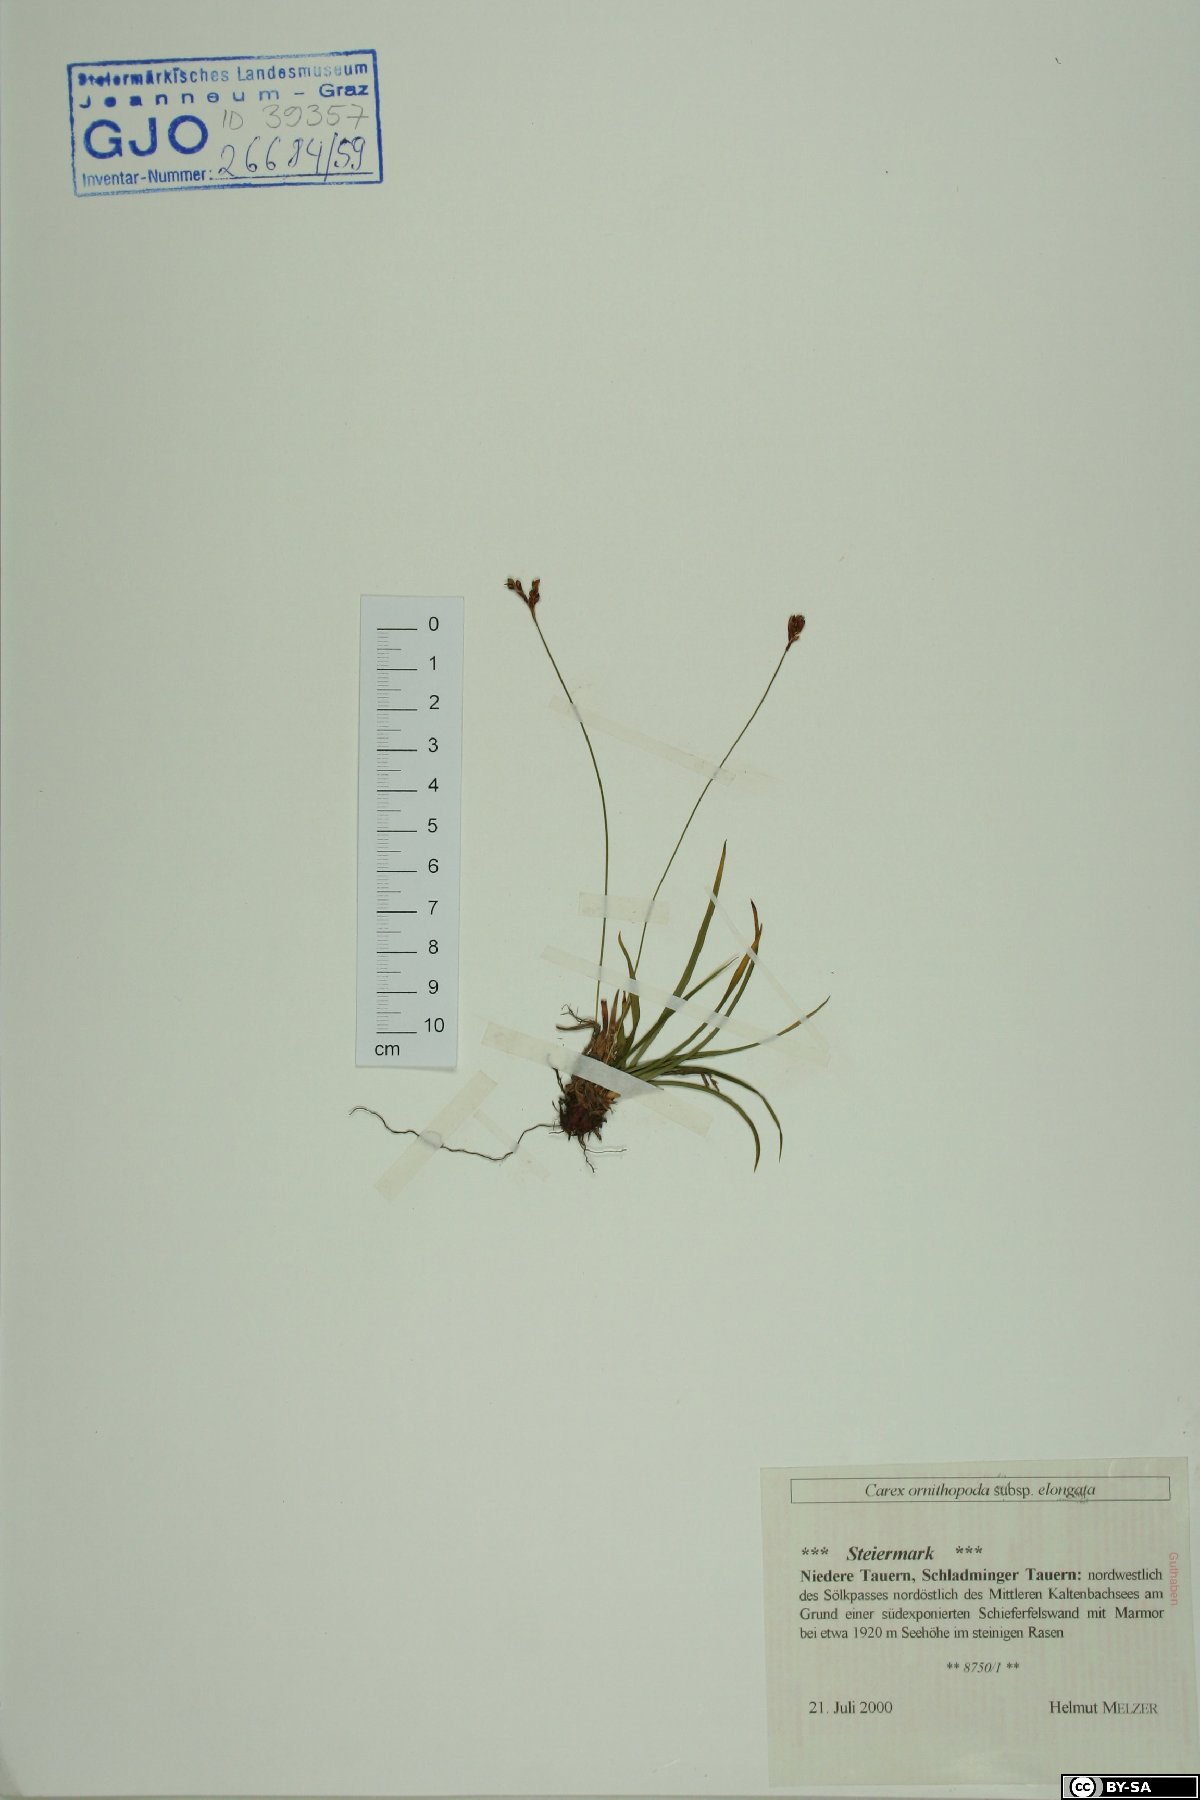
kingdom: Plantae
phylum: Tracheophyta
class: Liliopsida
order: Poales
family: Cyperaceae
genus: Carex
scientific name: Carex ornithopoda
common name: Bird's-foot sedge
